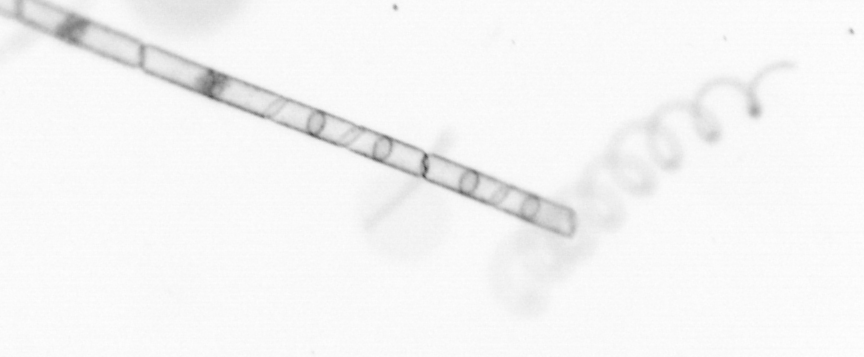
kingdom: Chromista
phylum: Ochrophyta
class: Bacillariophyceae
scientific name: Bacillariophyceae
